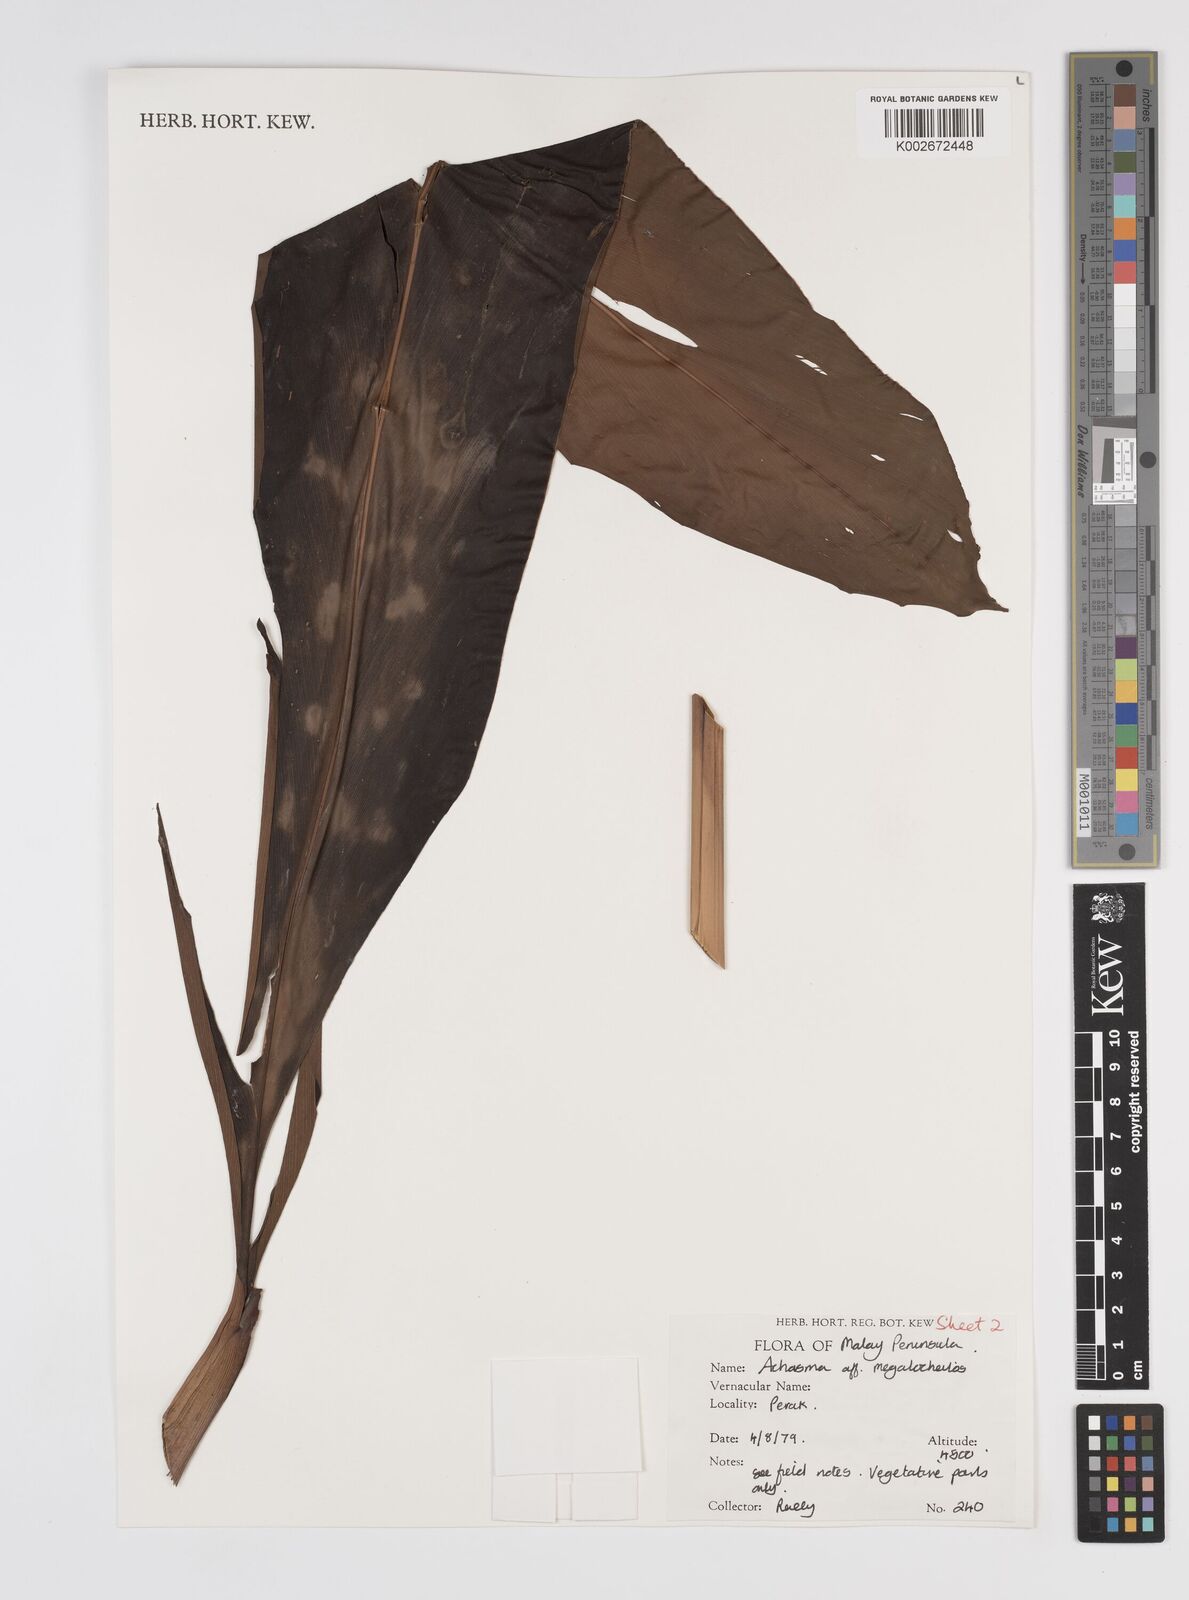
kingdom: Plantae
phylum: Tracheophyta
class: Liliopsida
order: Zingiberales
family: Zingiberaceae
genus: Etlingera
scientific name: Etlingera littoralis
